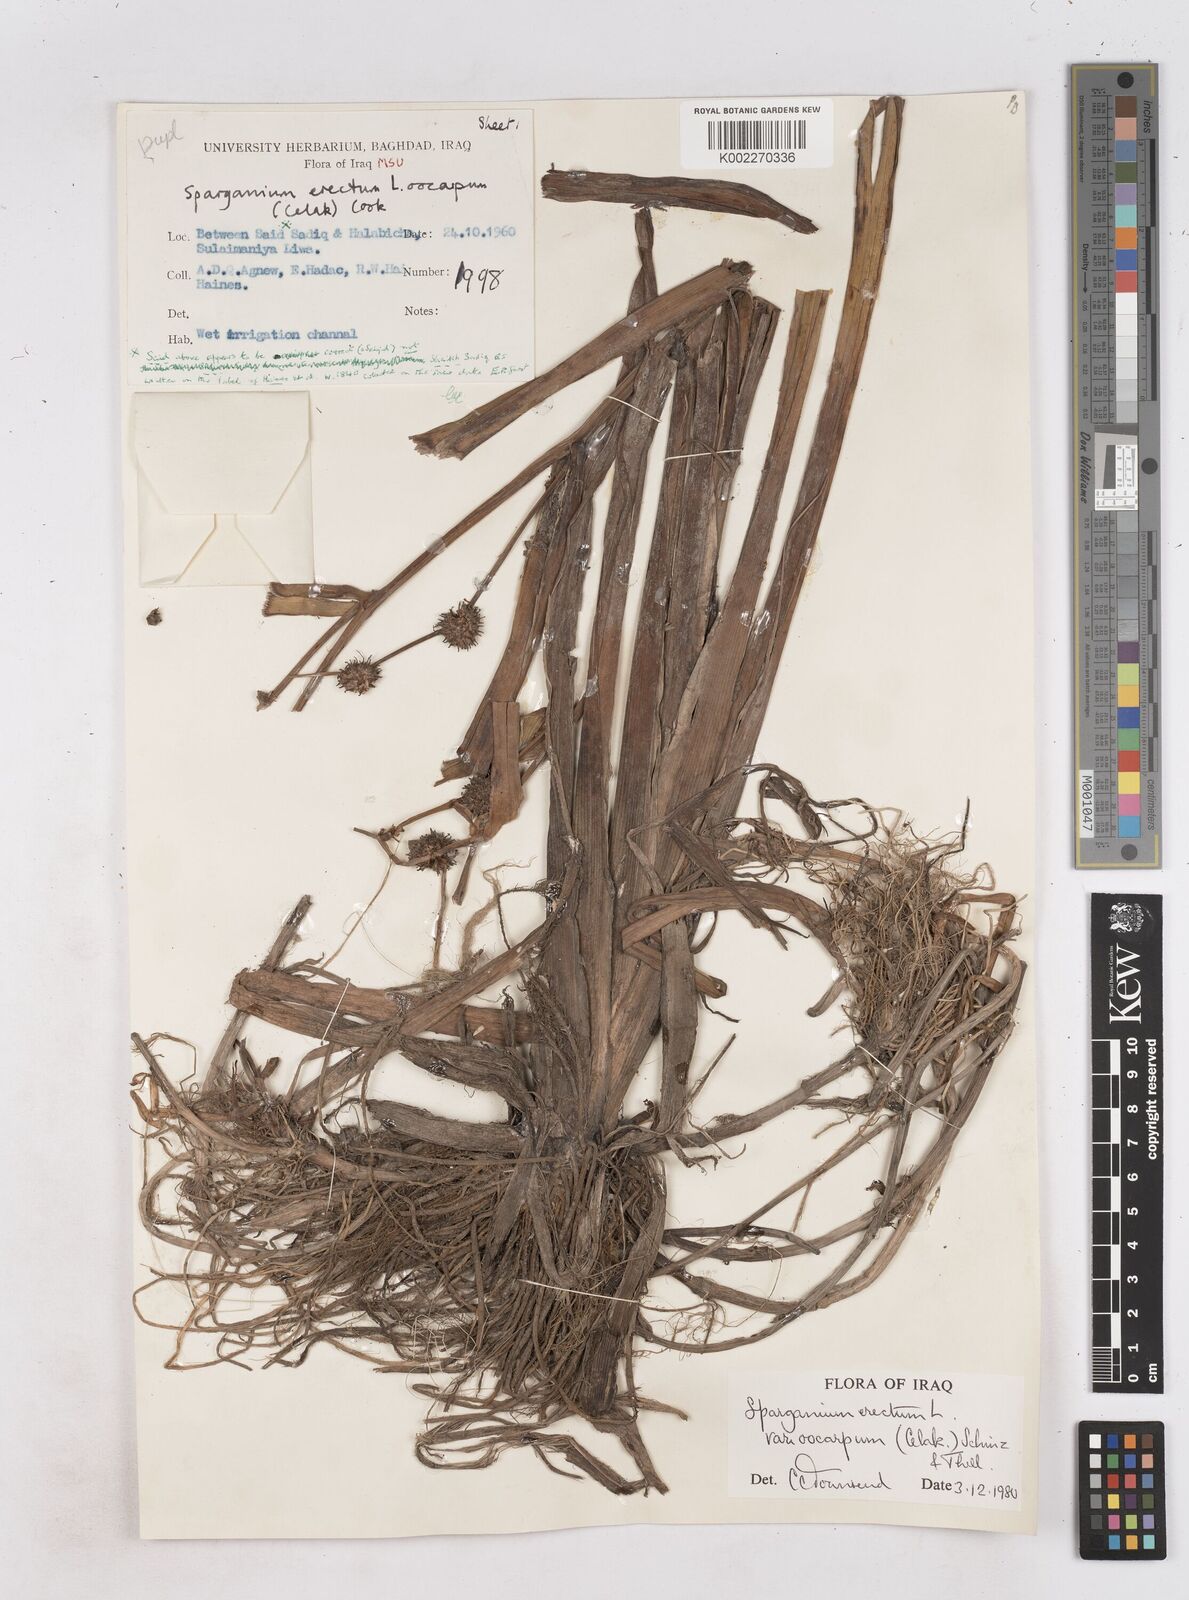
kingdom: Plantae
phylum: Tracheophyta
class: Liliopsida
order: Poales
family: Typhaceae
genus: Sparganium
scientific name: Sparganium erectum
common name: Branched bur-reed
